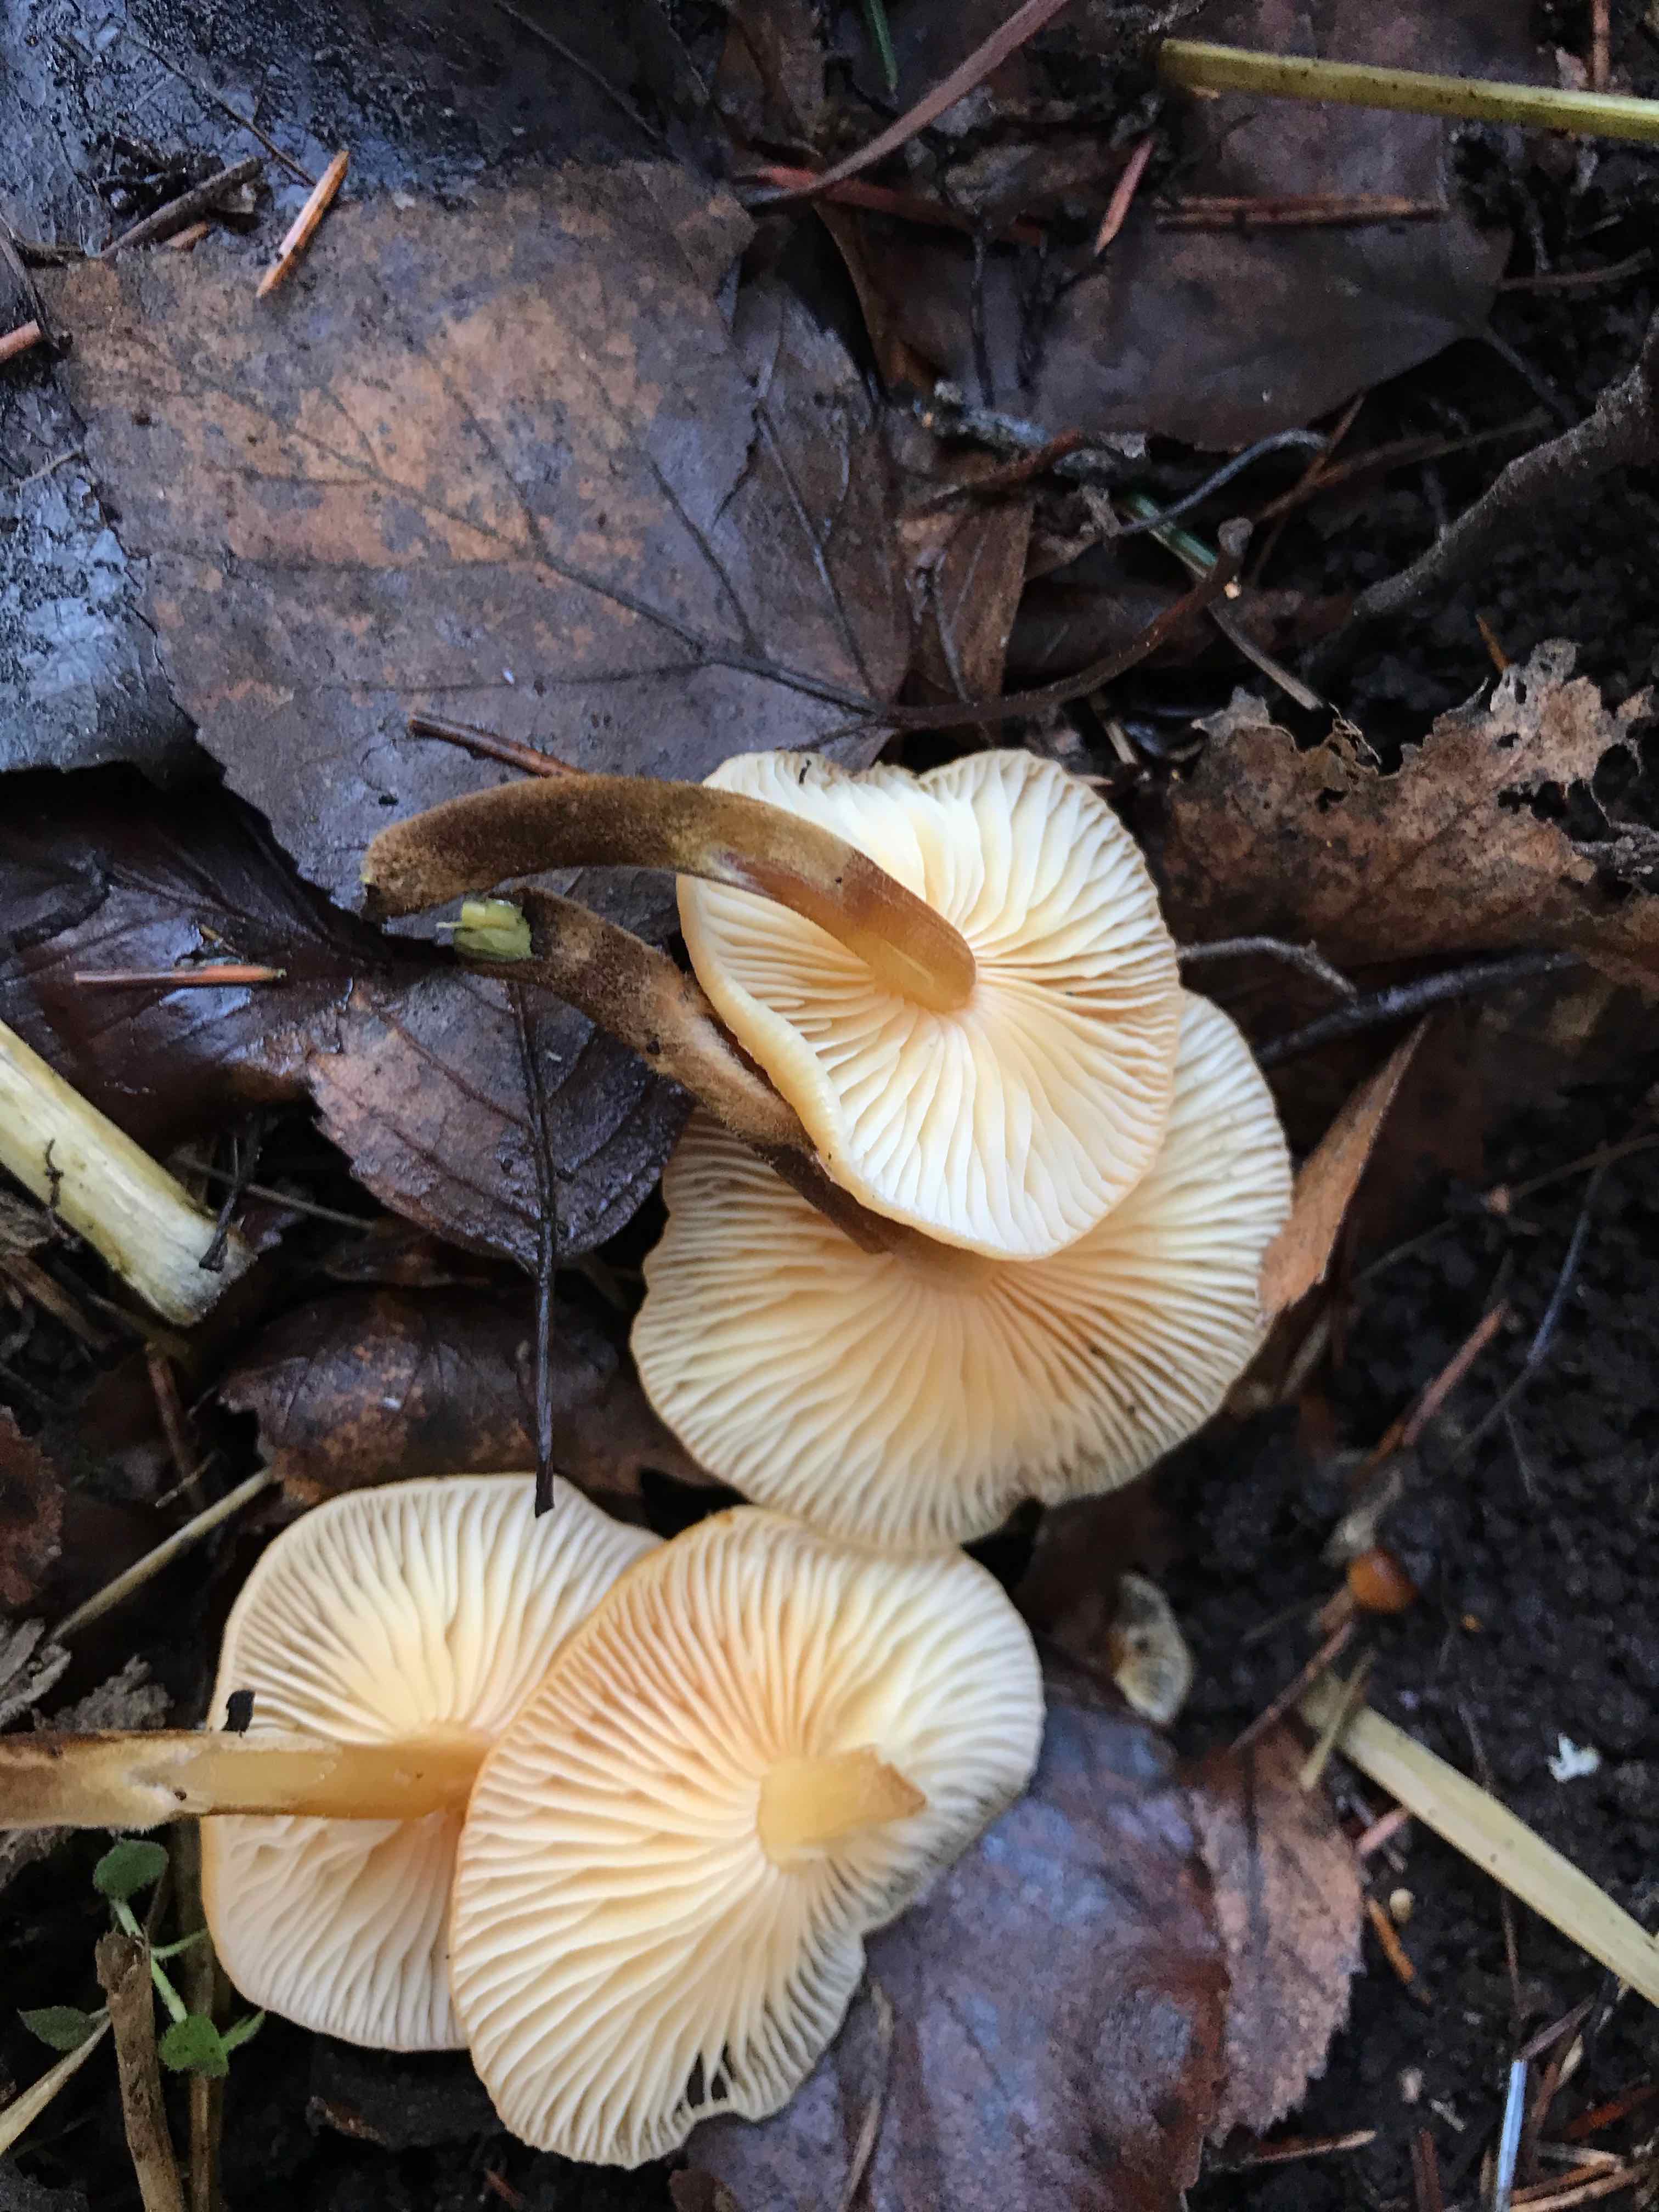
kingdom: Fungi
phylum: Basidiomycota
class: Agaricomycetes
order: Agaricales
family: Physalacriaceae
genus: Flammulina
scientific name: Flammulina velutipes
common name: gul fløjlsfod
